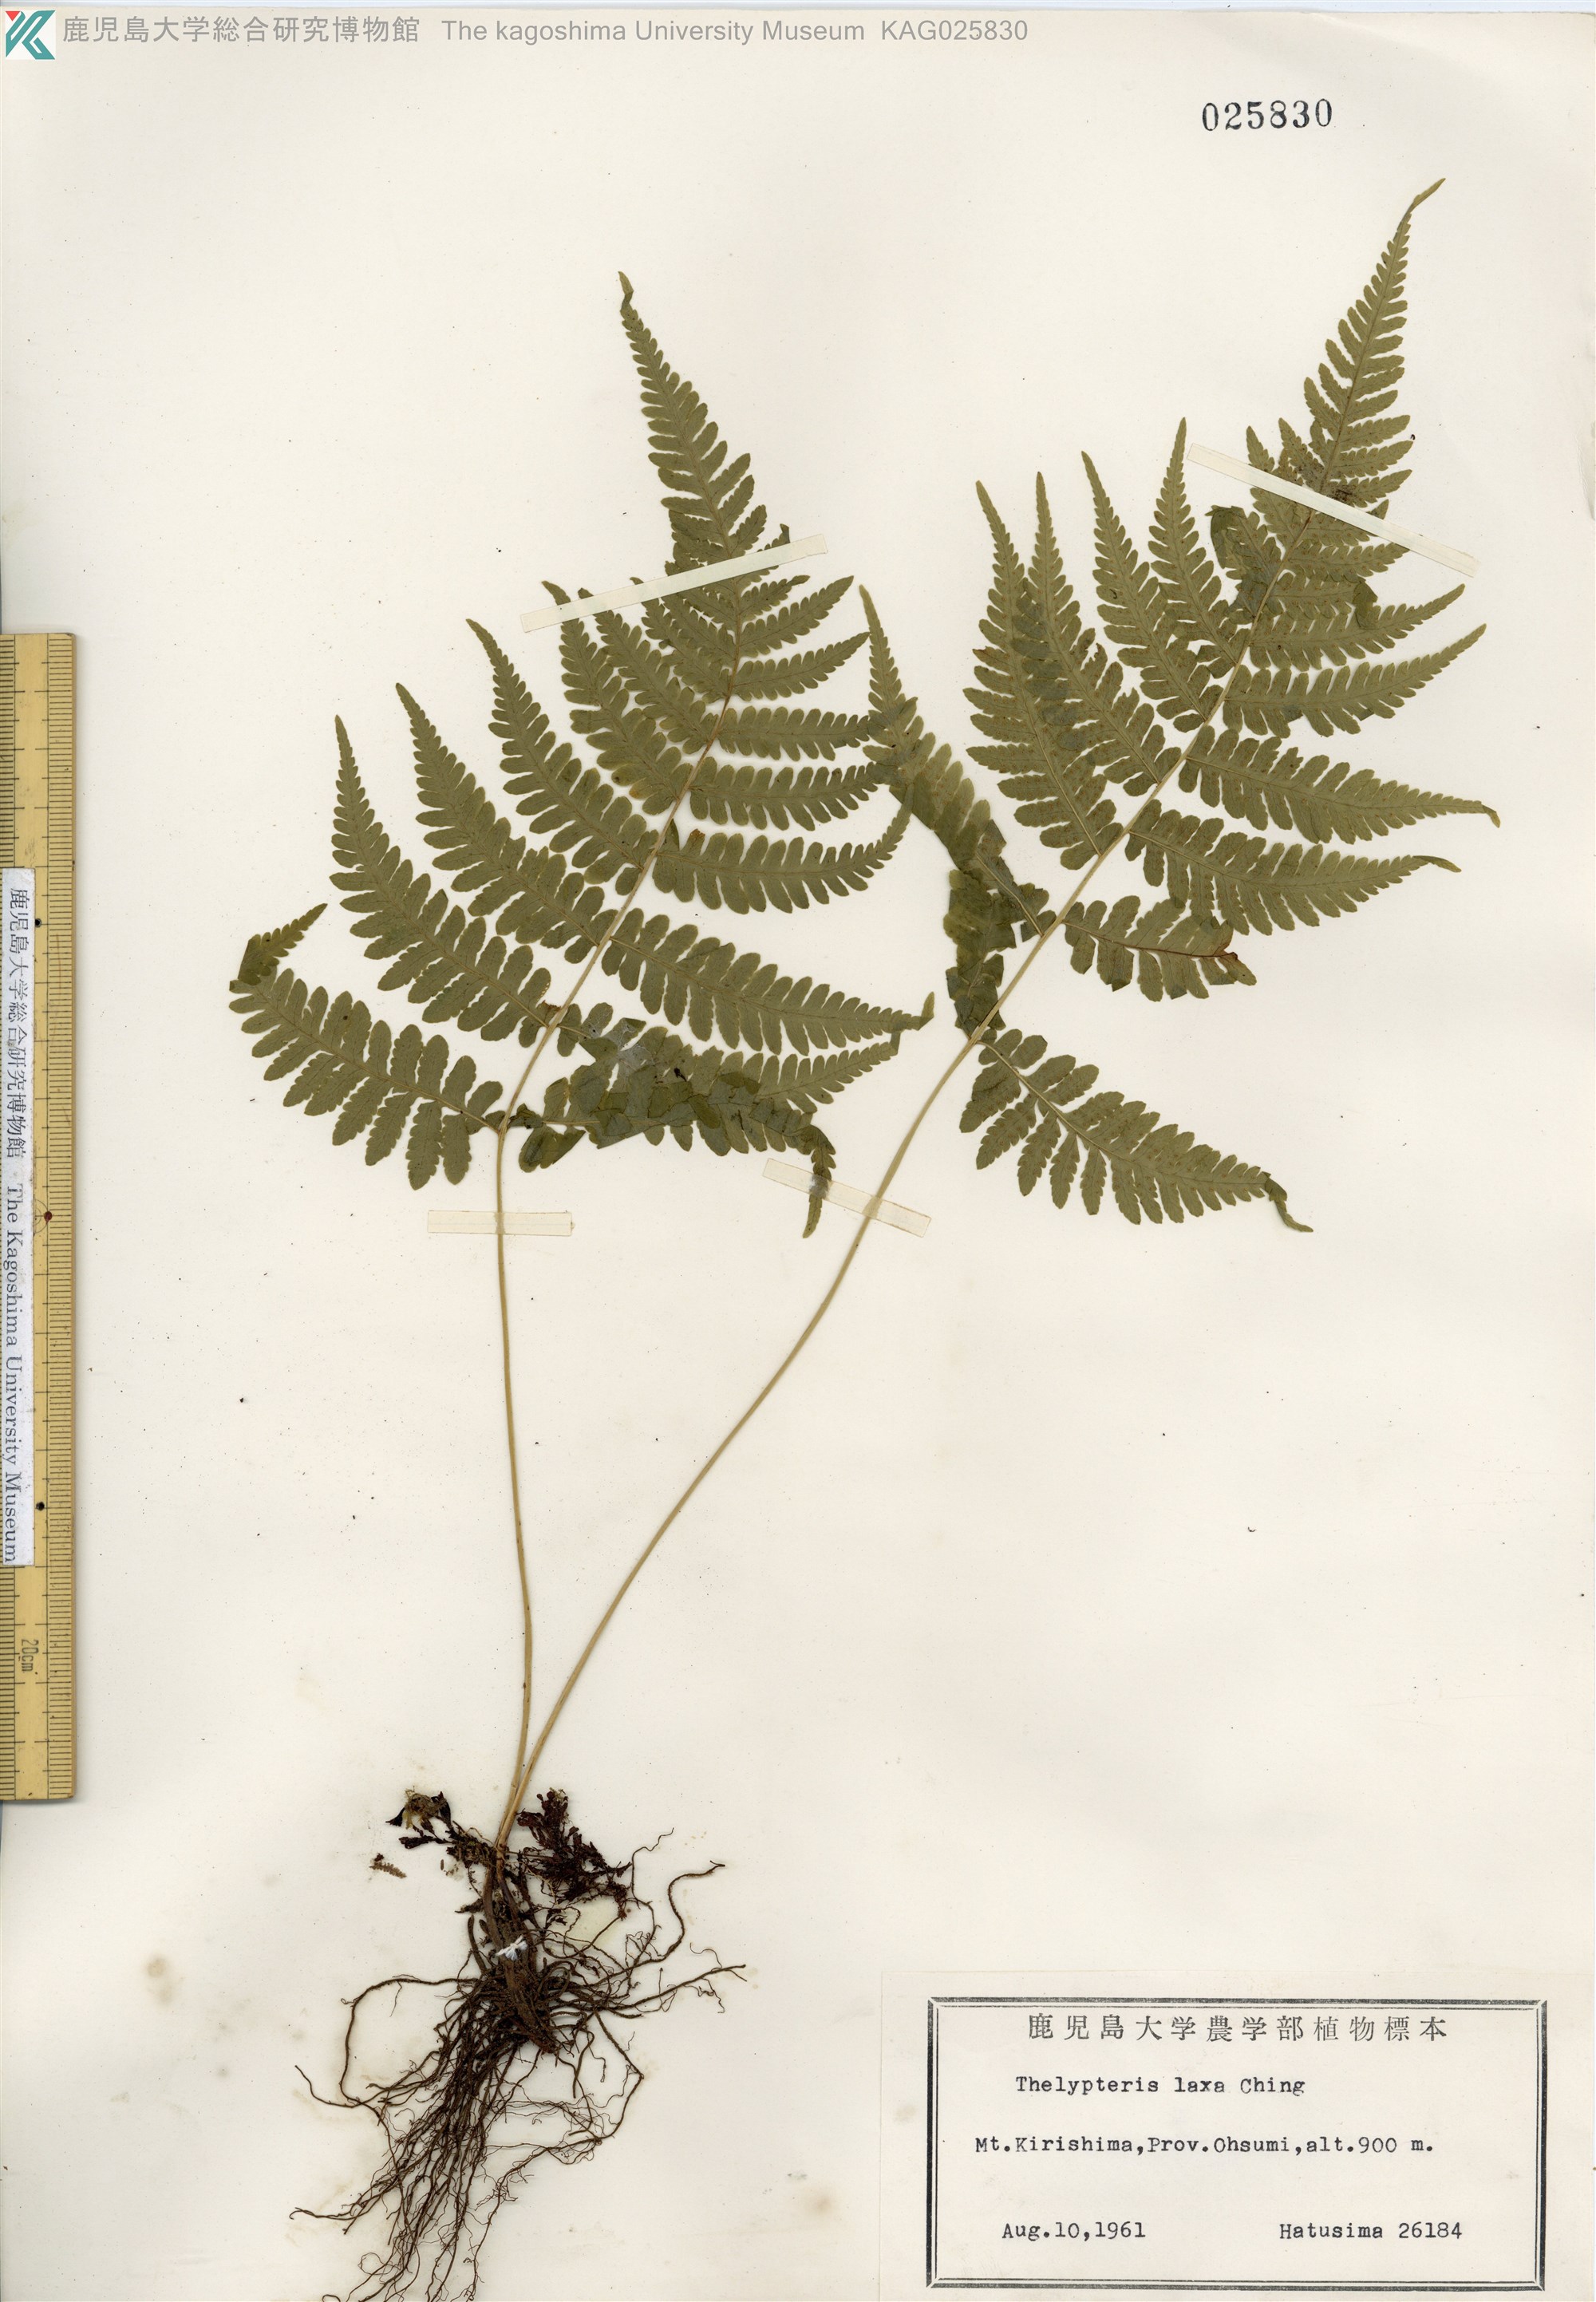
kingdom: Plantae
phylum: Tracheophyta
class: Polypodiopsida
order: Polypodiales
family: Thelypteridaceae
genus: Metathelypteris
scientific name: Metathelypteris laxa
